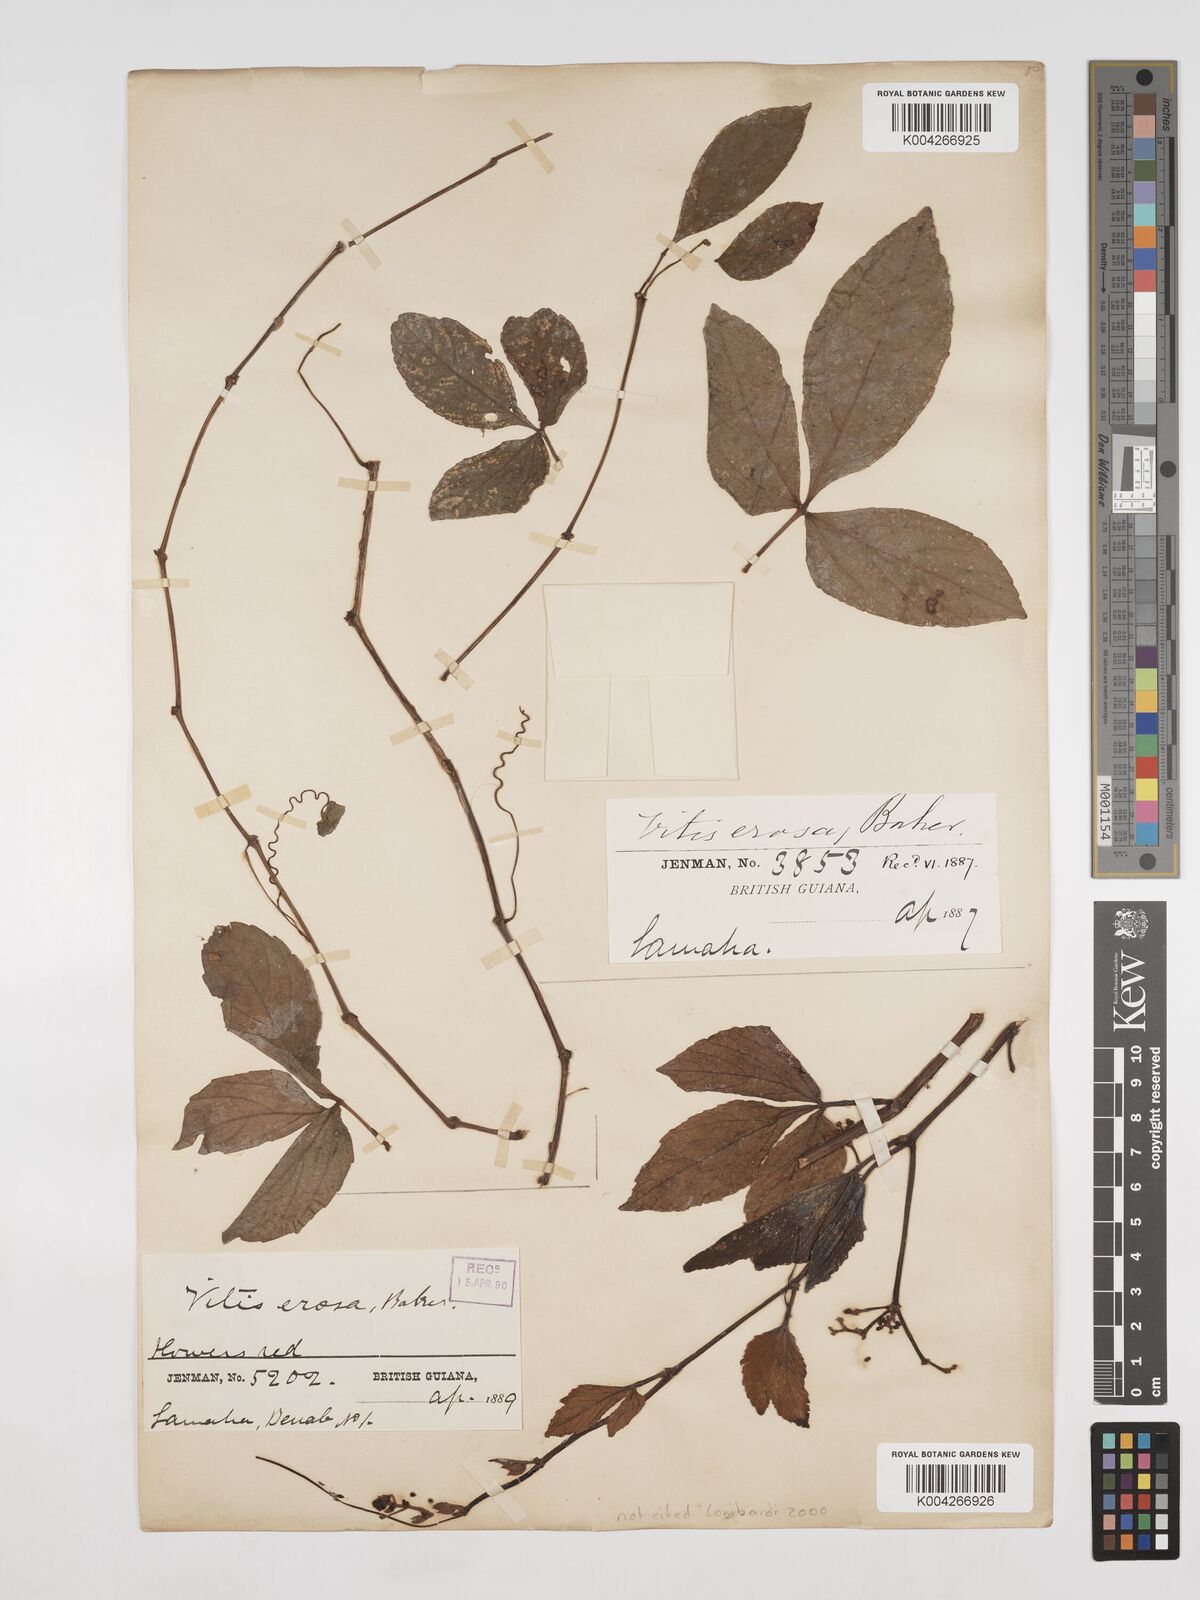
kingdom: Plantae
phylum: Tracheophyta
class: Magnoliopsida
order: Vitales
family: Vitaceae
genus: Cissus
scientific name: Cissus erosa
